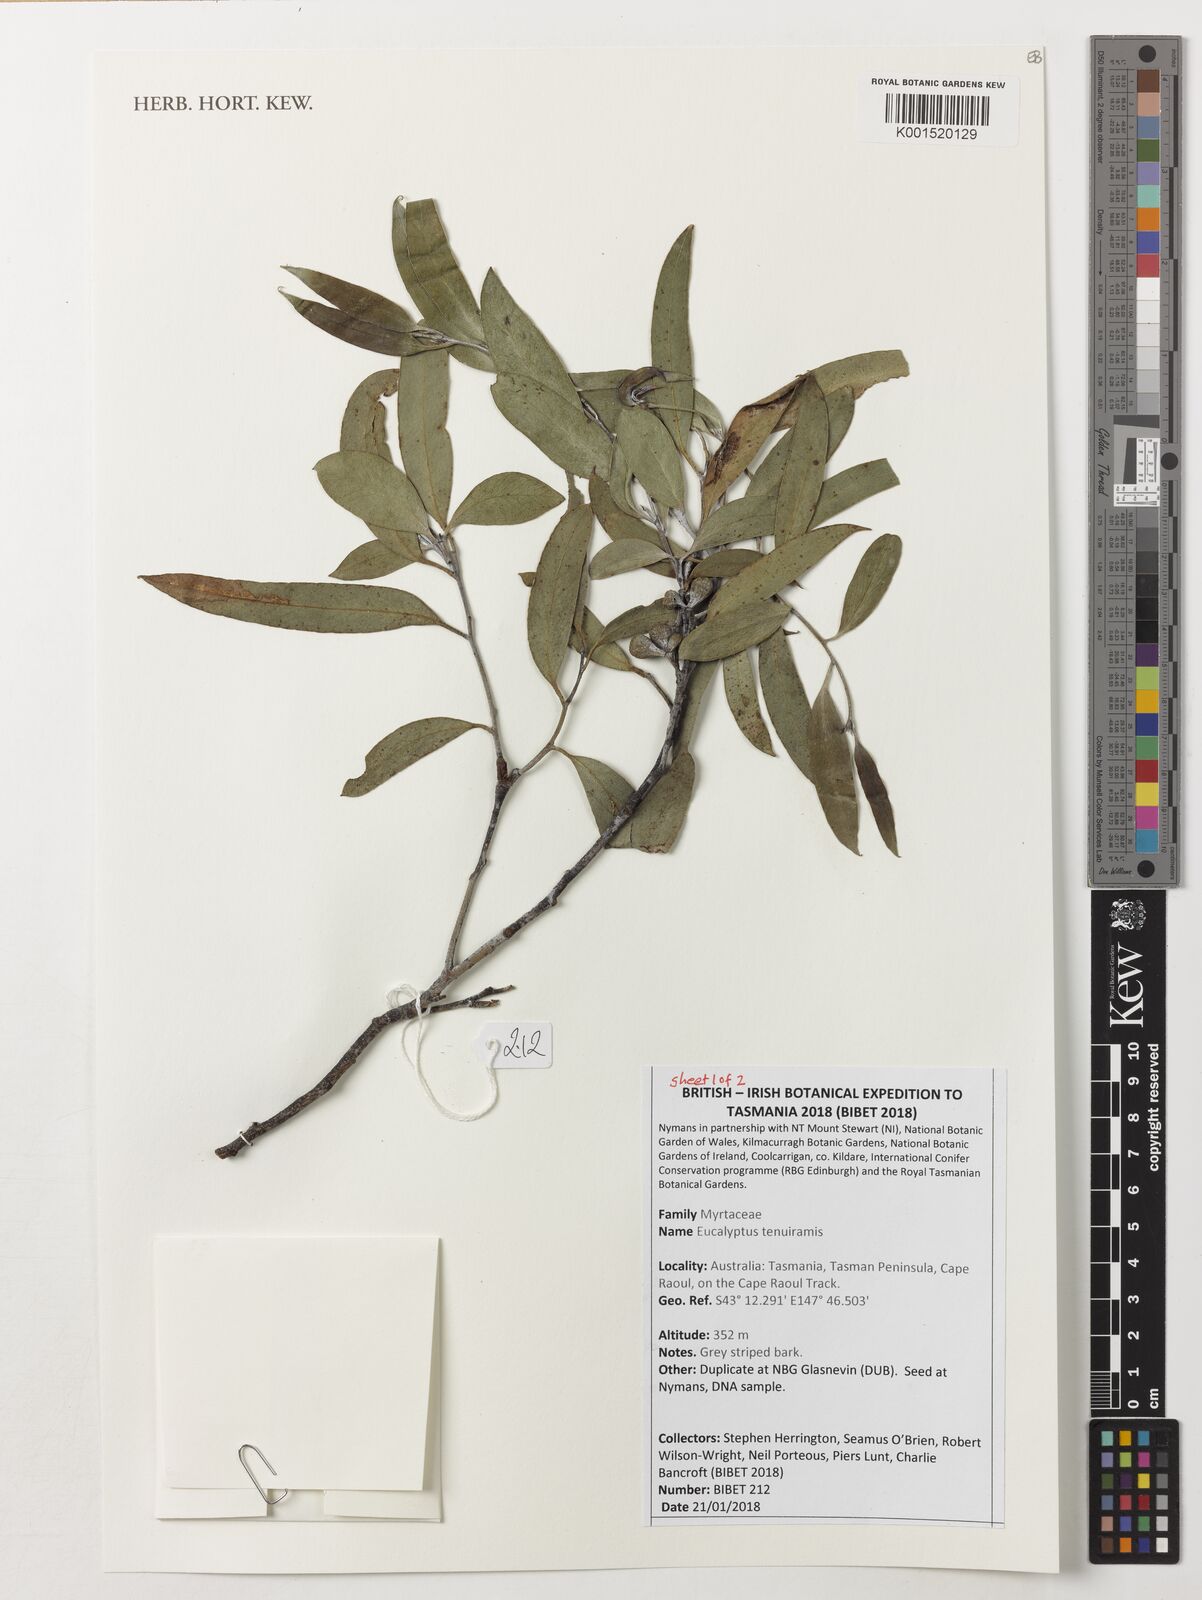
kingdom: Plantae
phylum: Tracheophyta
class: Magnoliopsida
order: Myrtales
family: Myrtaceae
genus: Eucalyptus
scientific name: Eucalyptus tenuiramis
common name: Silver peppermint
